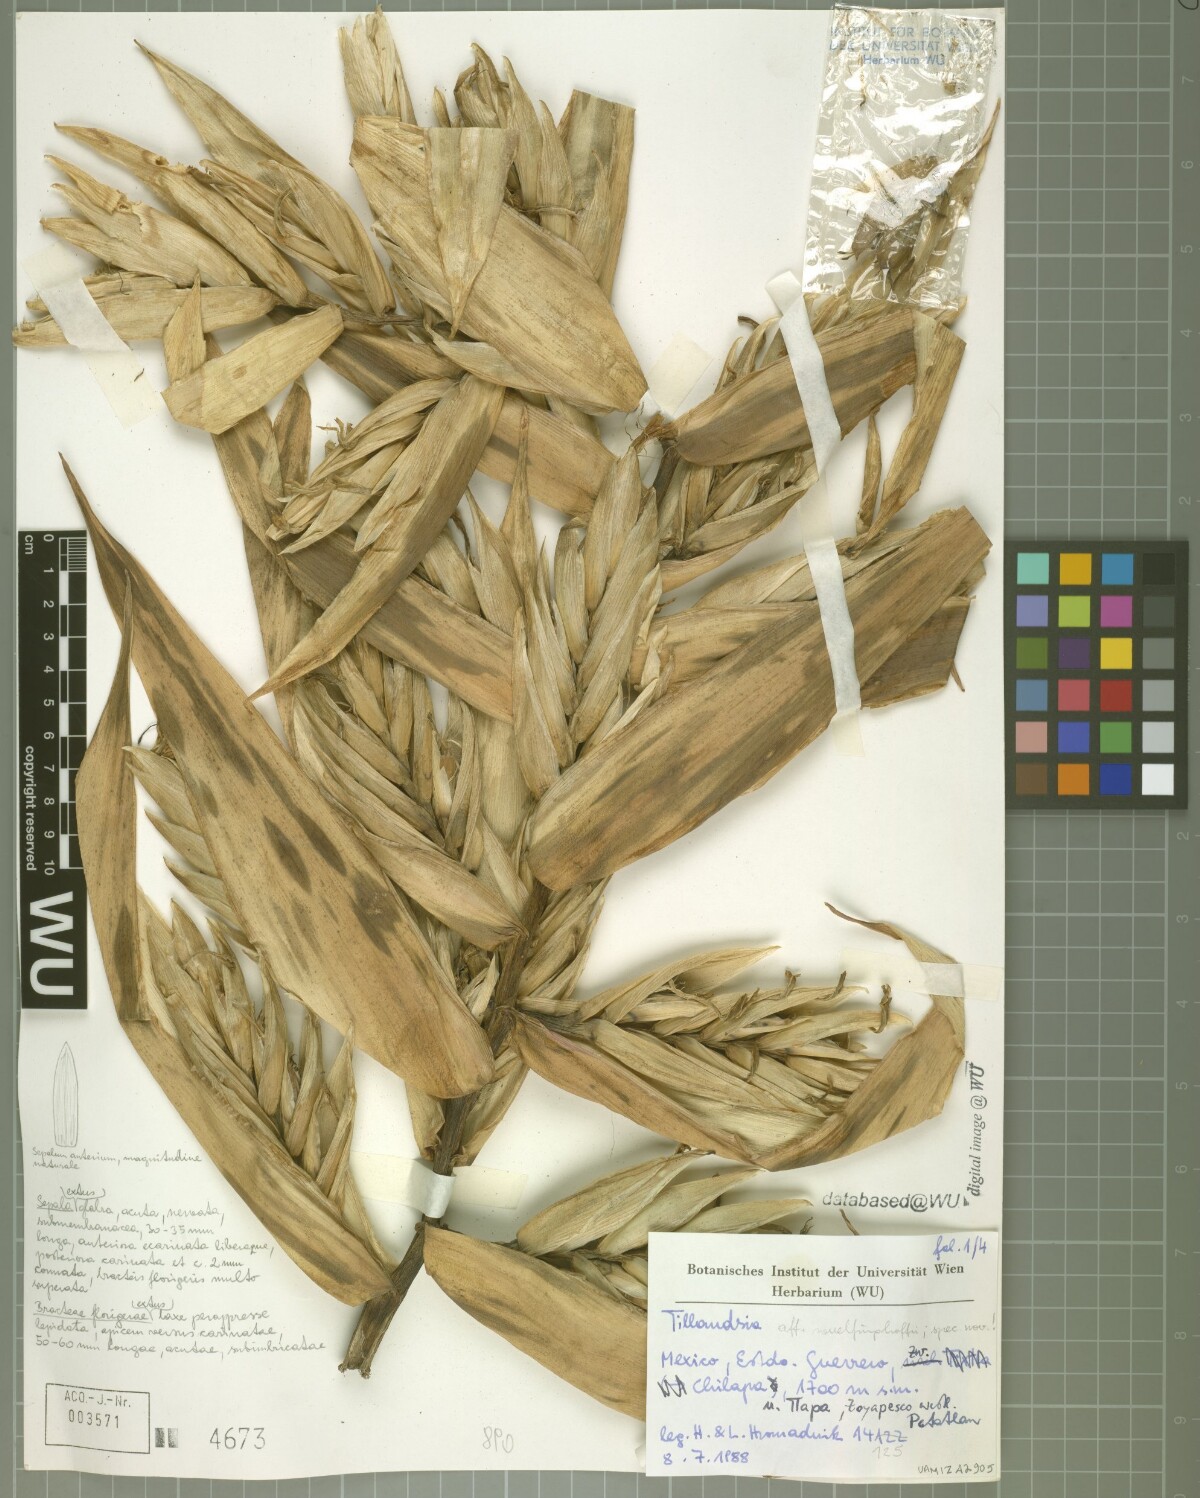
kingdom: Plantae
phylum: Tracheophyta
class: Liliopsida
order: Poales
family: Bromeliaceae
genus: Tillandsia
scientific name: Tillandsia mirabilis
